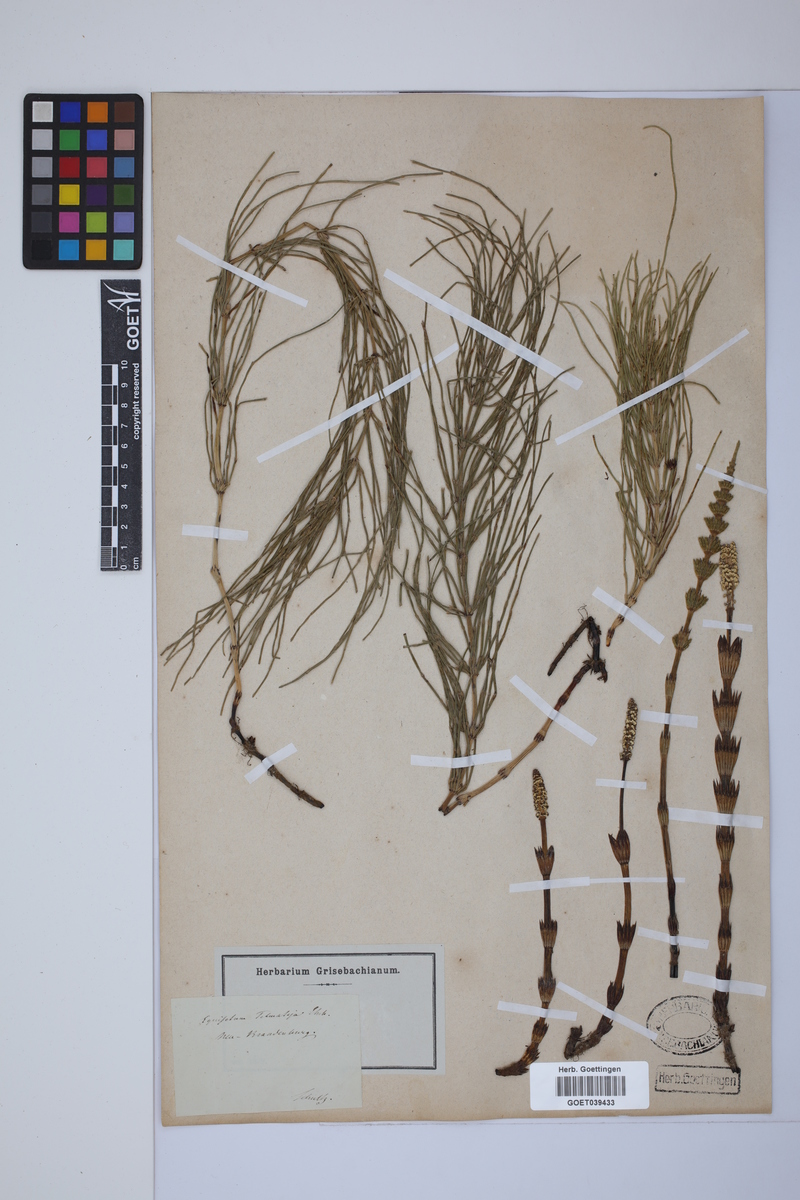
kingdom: Plantae
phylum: Tracheophyta
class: Polypodiopsida
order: Equisetales
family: Equisetaceae
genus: Equisetum
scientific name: Equisetum telmateia
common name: Great horsetail
